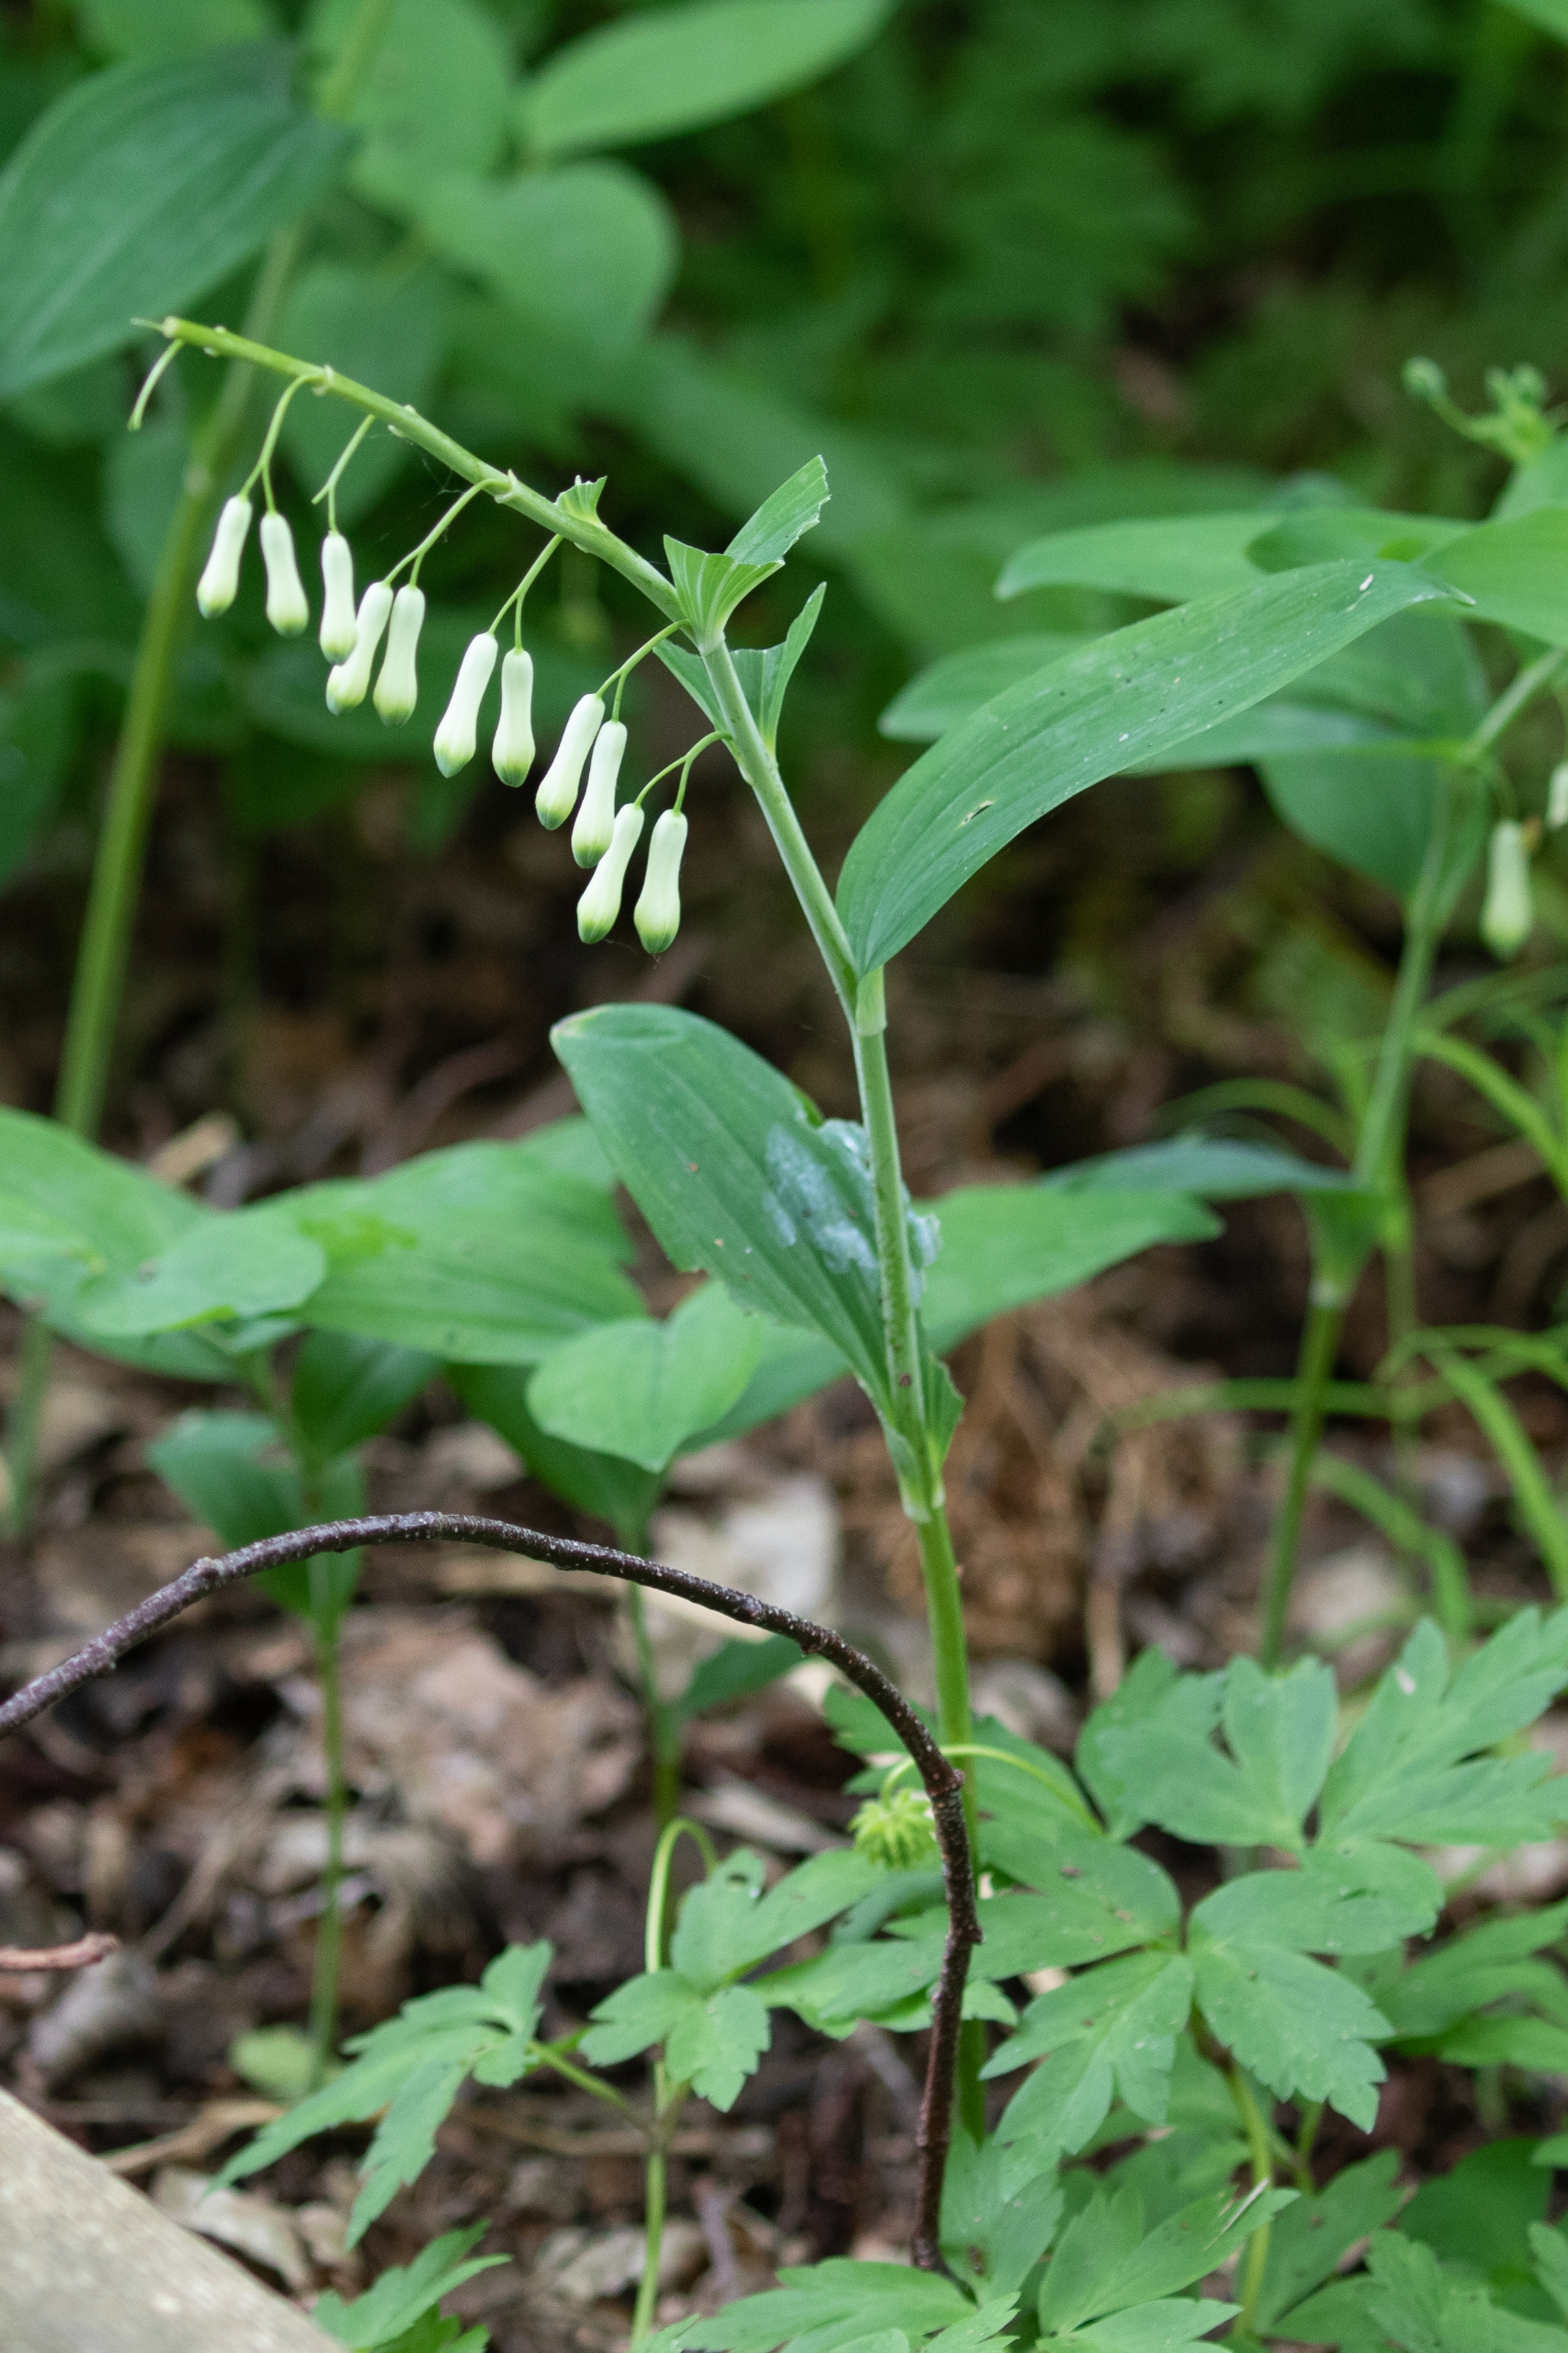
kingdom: Plantae
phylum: Tracheophyta
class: Liliopsida
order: Asparagales
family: Asparagaceae
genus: Polygonatum
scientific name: Polygonatum multiflorum
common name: Stor konval
